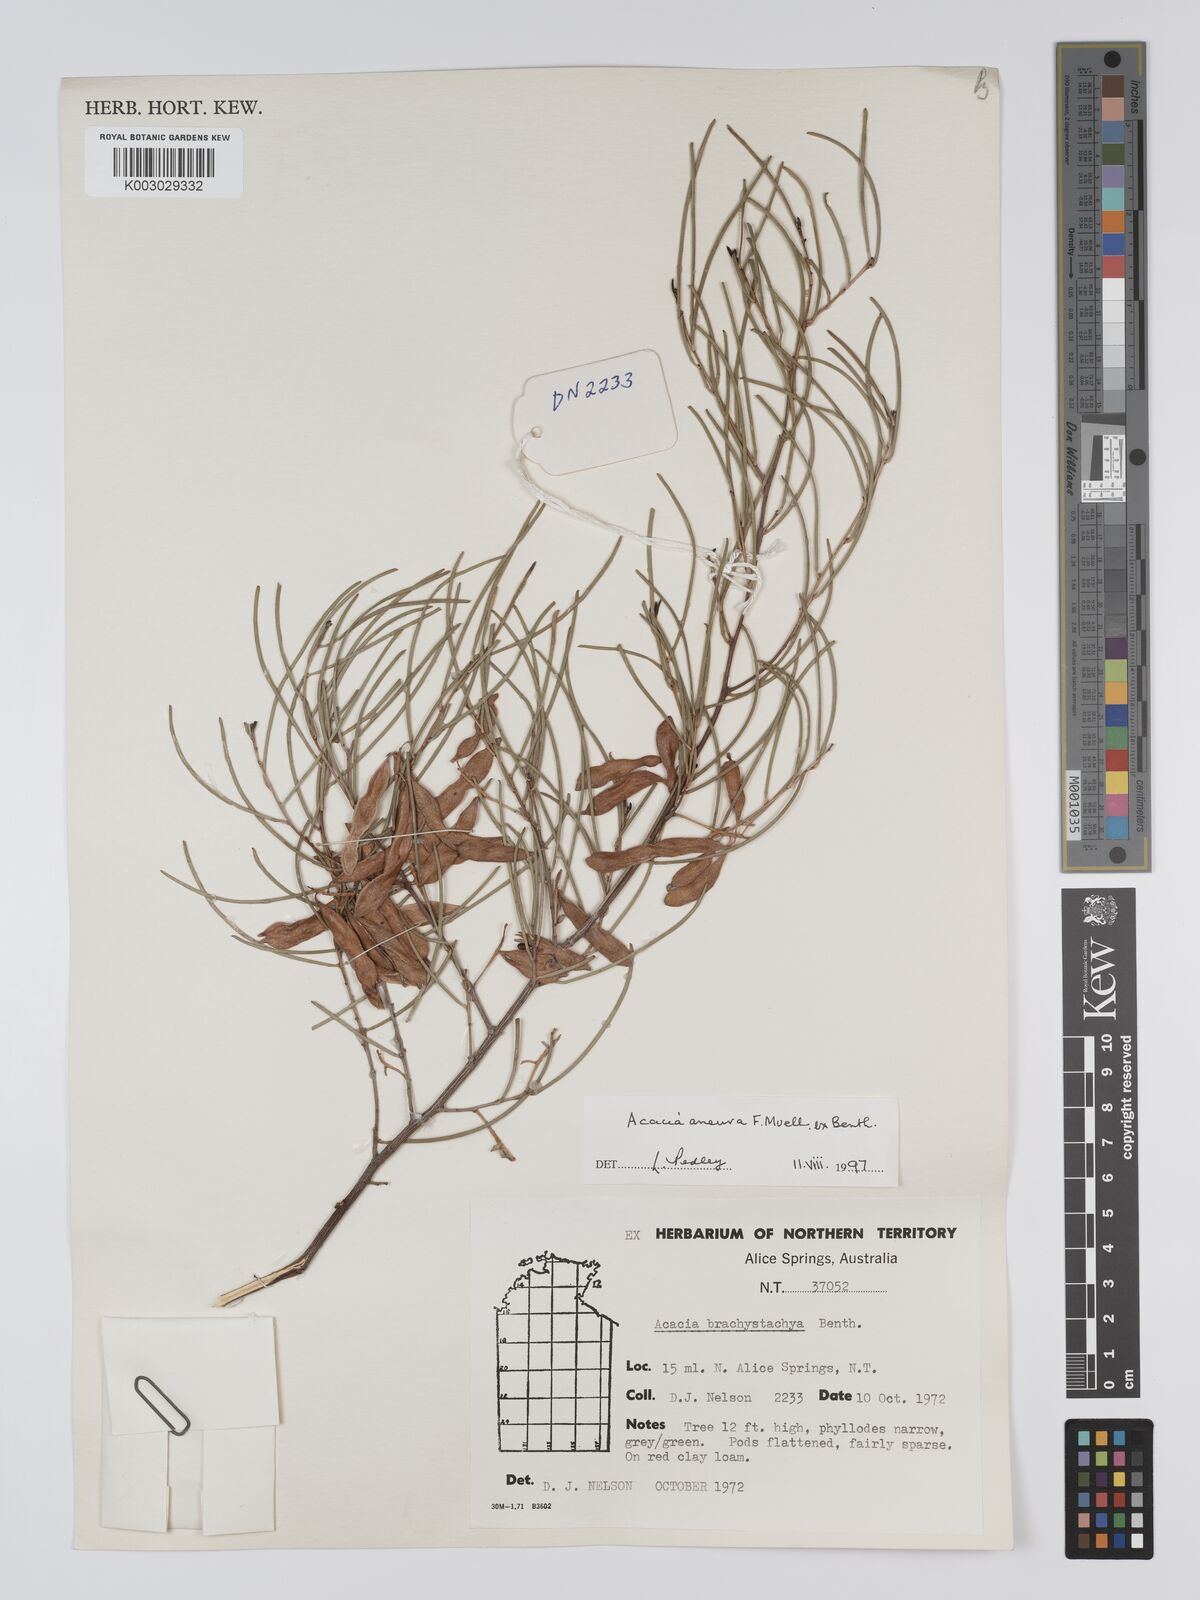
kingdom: Plantae
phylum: Tracheophyta
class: Magnoliopsida
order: Fabales
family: Fabaceae
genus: Acacia
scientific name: Acacia aneura
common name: Mulga
